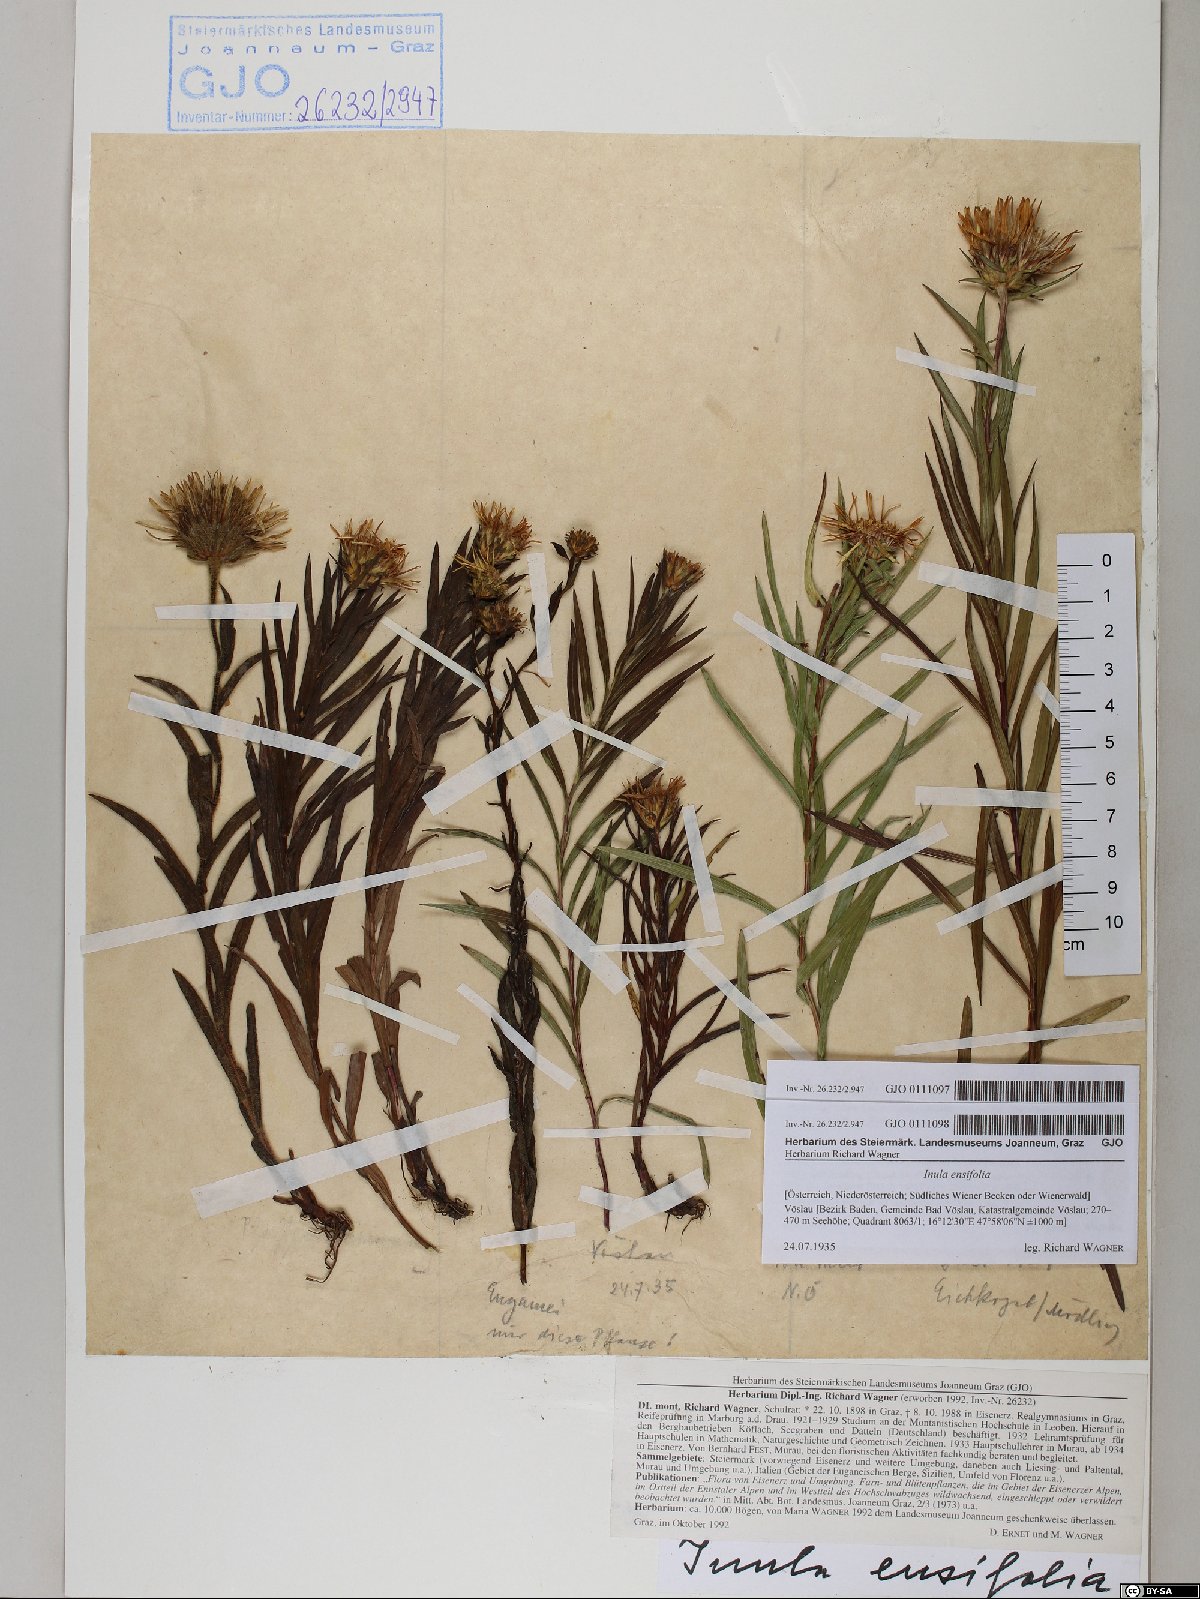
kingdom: Plantae
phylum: Tracheophyta
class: Magnoliopsida
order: Asterales
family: Asteraceae
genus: Pentanema
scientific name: Pentanema ensifolium
